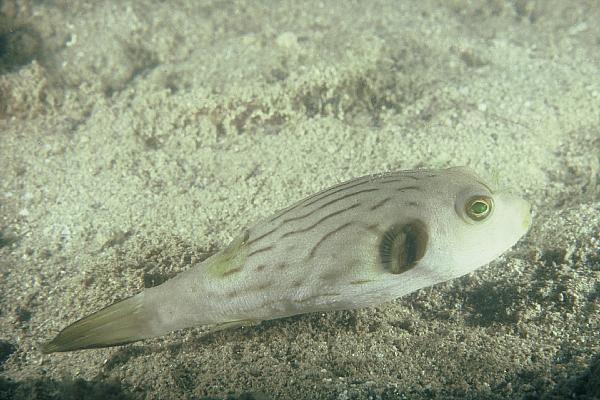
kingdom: Animalia
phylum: Chordata
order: Tetraodontiformes
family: Tetraodontidae
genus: Arothron
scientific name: Arothron manilensis
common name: Narrow-lined puffer
